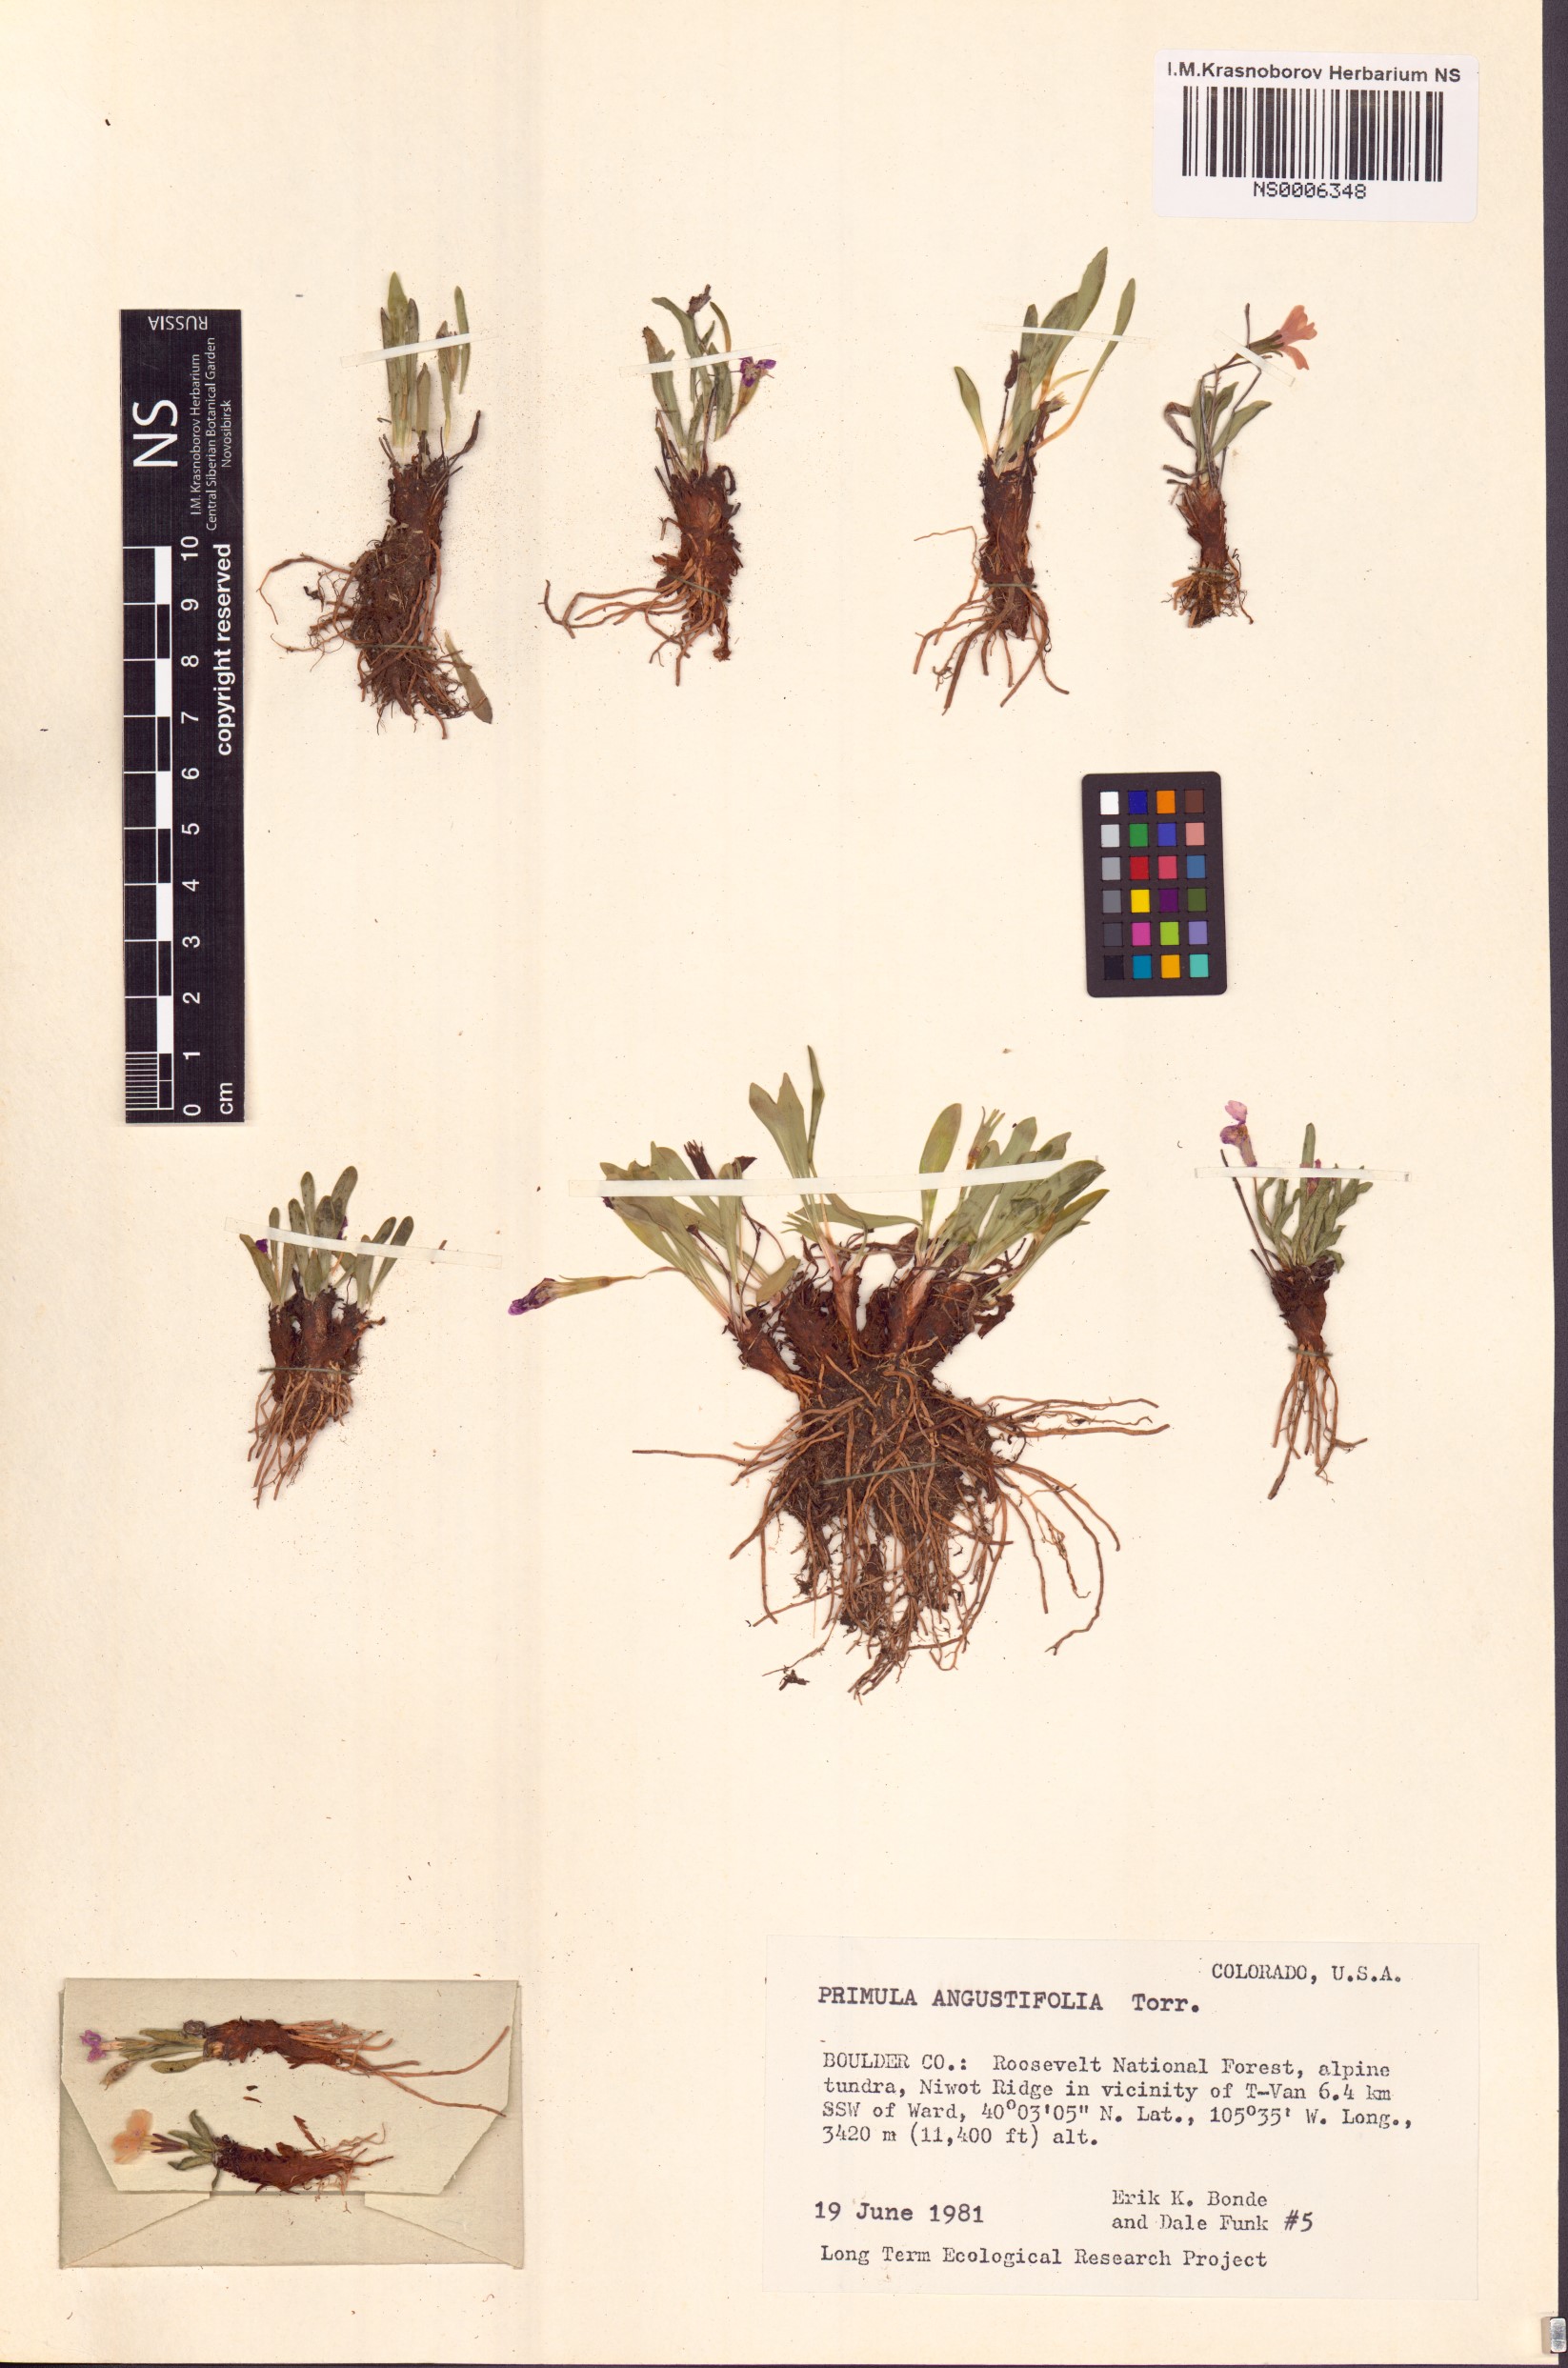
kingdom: Plantae
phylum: Tracheophyta
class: Magnoliopsida
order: Ericales
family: Primulaceae
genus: Primula
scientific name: Primula angustifolia
